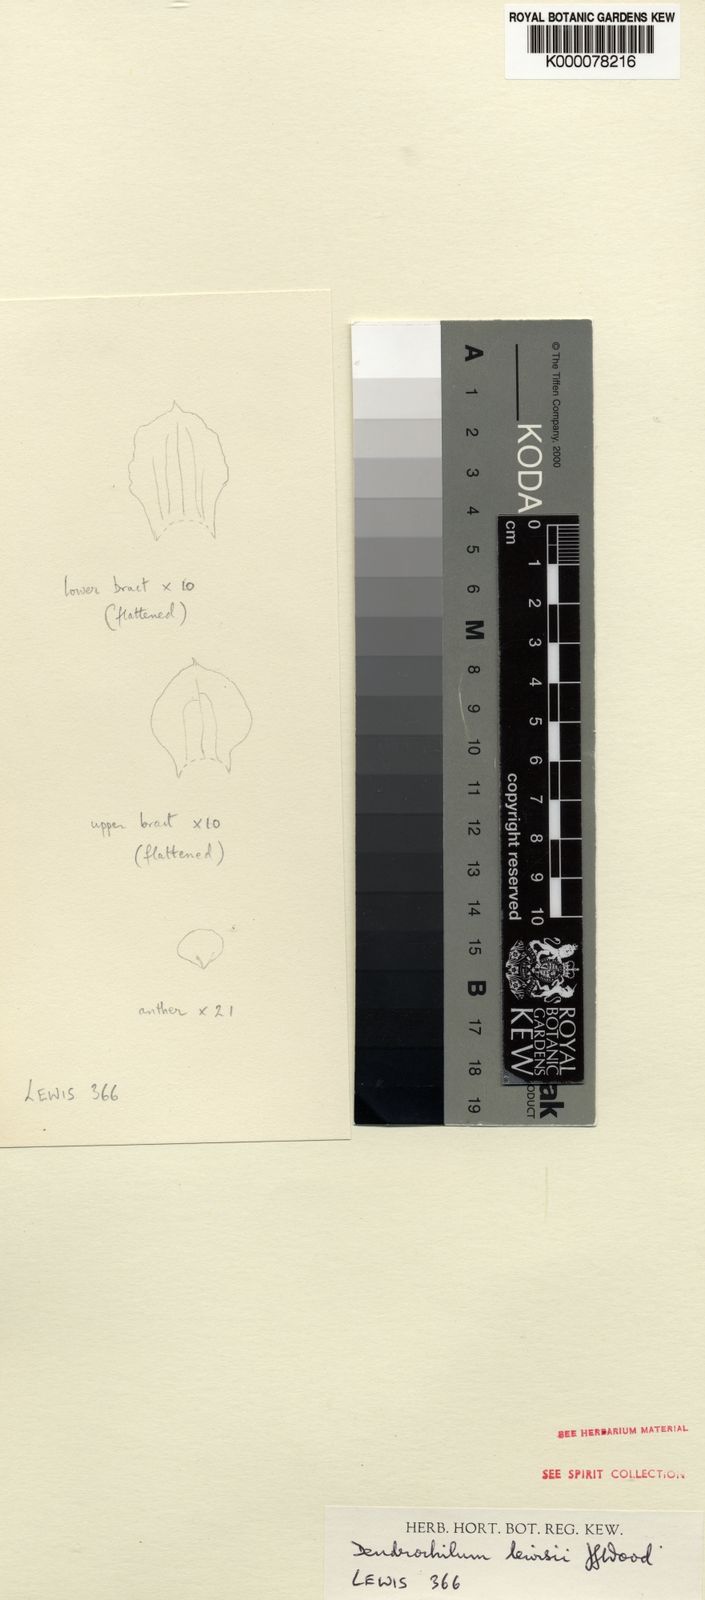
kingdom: Plantae
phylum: Tracheophyta
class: Liliopsida
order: Asparagales
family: Orchidaceae
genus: Coelogyne
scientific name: Coelogyne lewisii
